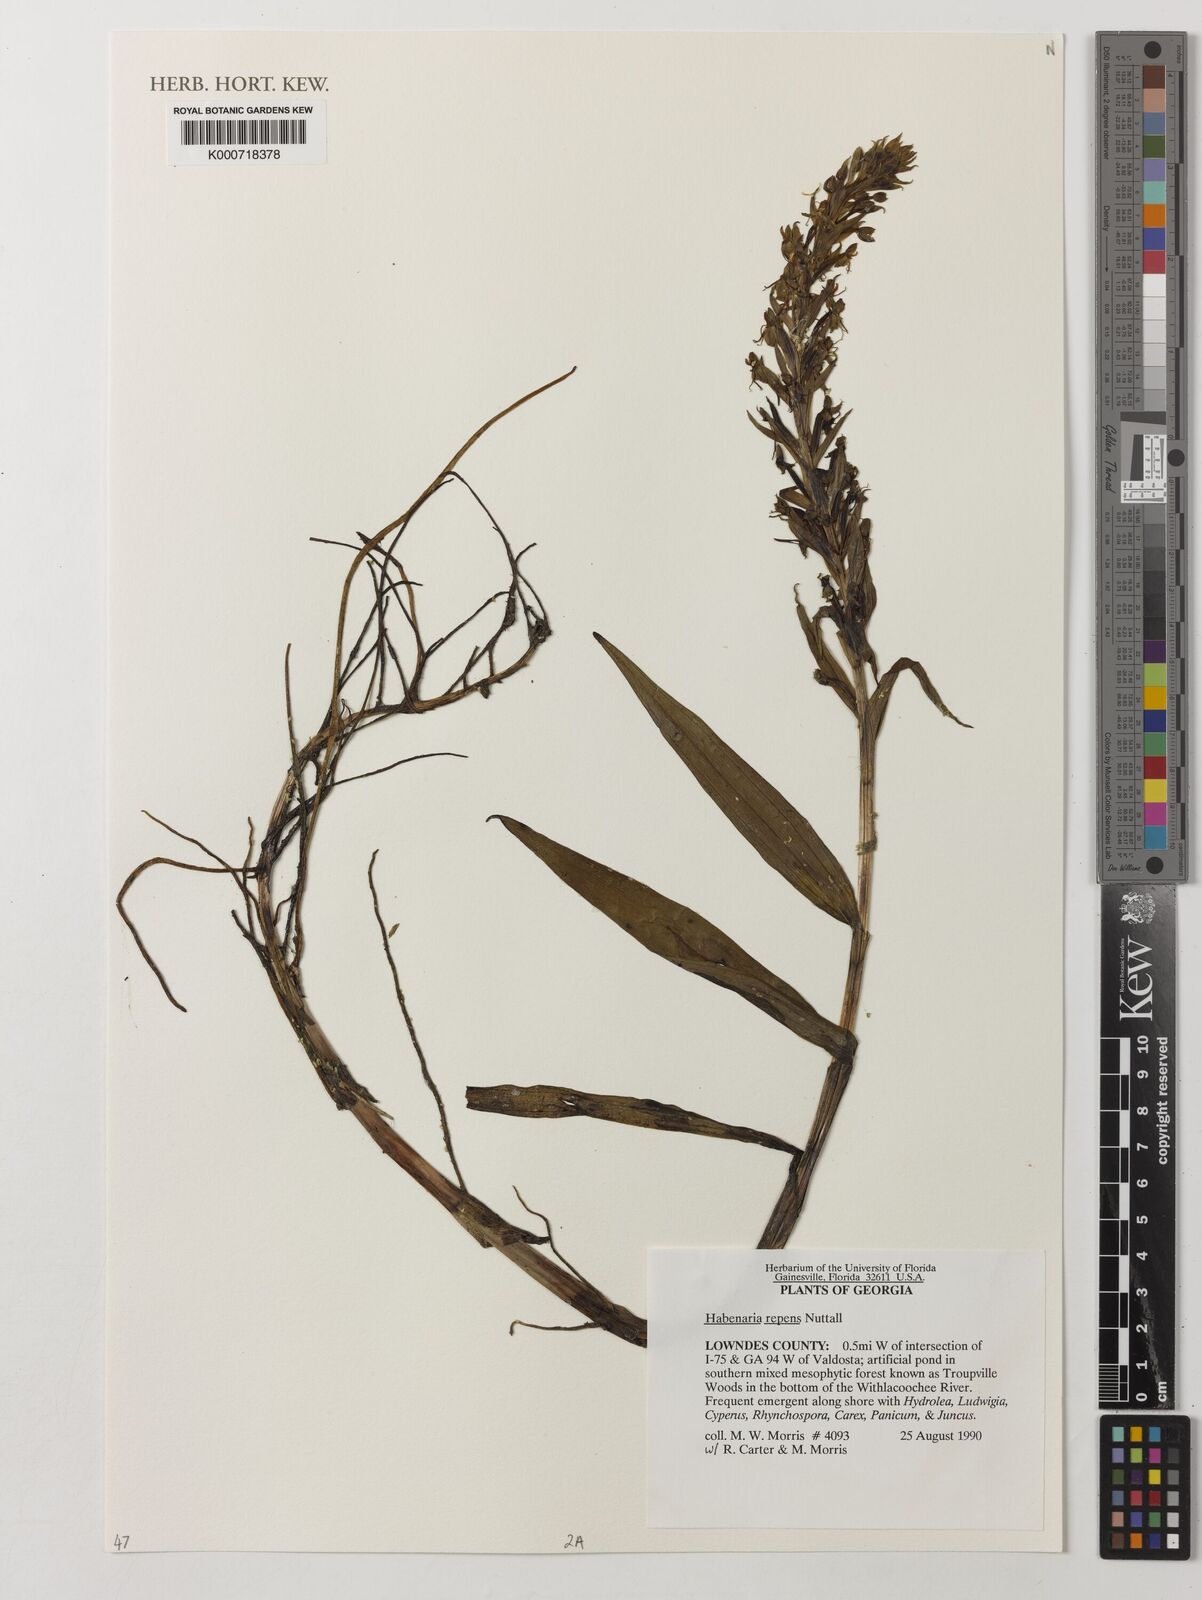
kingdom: Plantae
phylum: Tracheophyta
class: Liliopsida
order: Asparagales
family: Orchidaceae
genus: Habenaria
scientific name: Habenaria repens
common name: Water orchid
